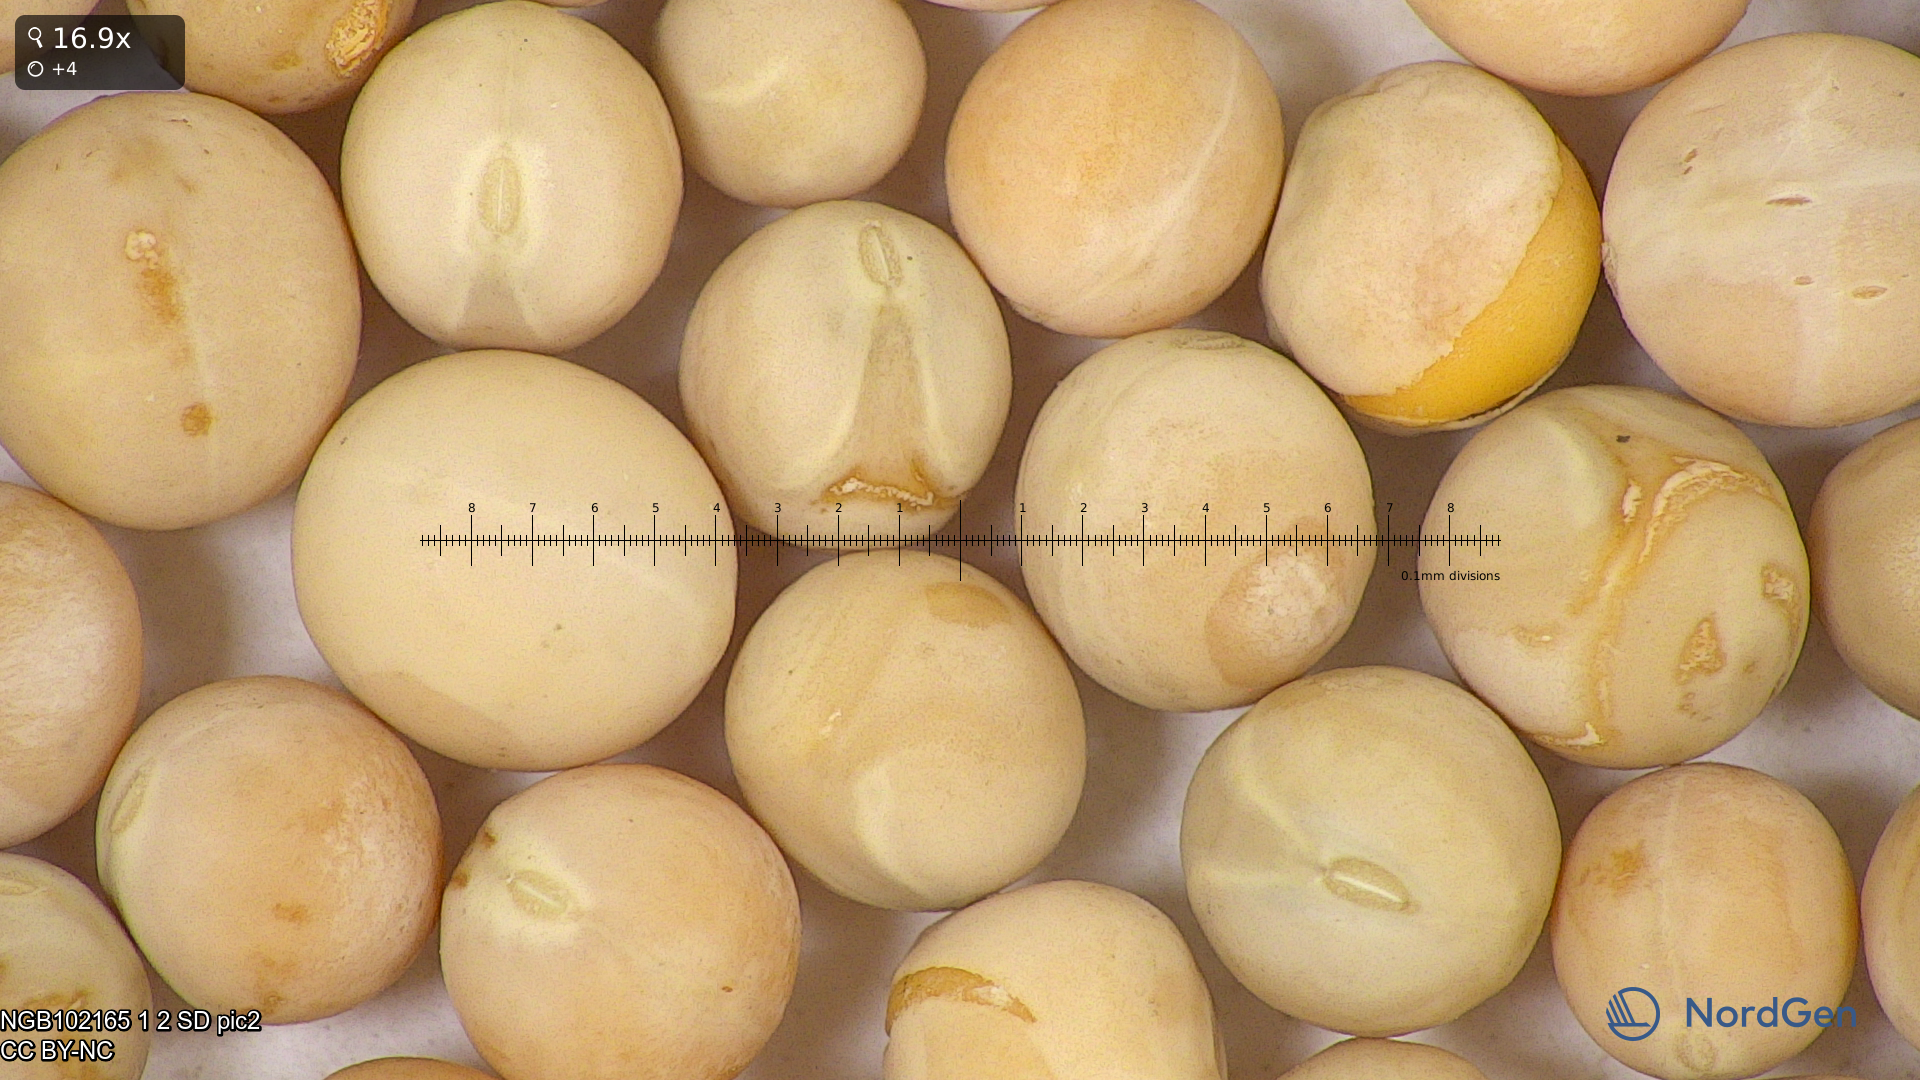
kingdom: Plantae
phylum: Tracheophyta
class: Magnoliopsida
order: Fabales
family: Fabaceae
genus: Lathyrus
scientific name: Lathyrus oleraceus
